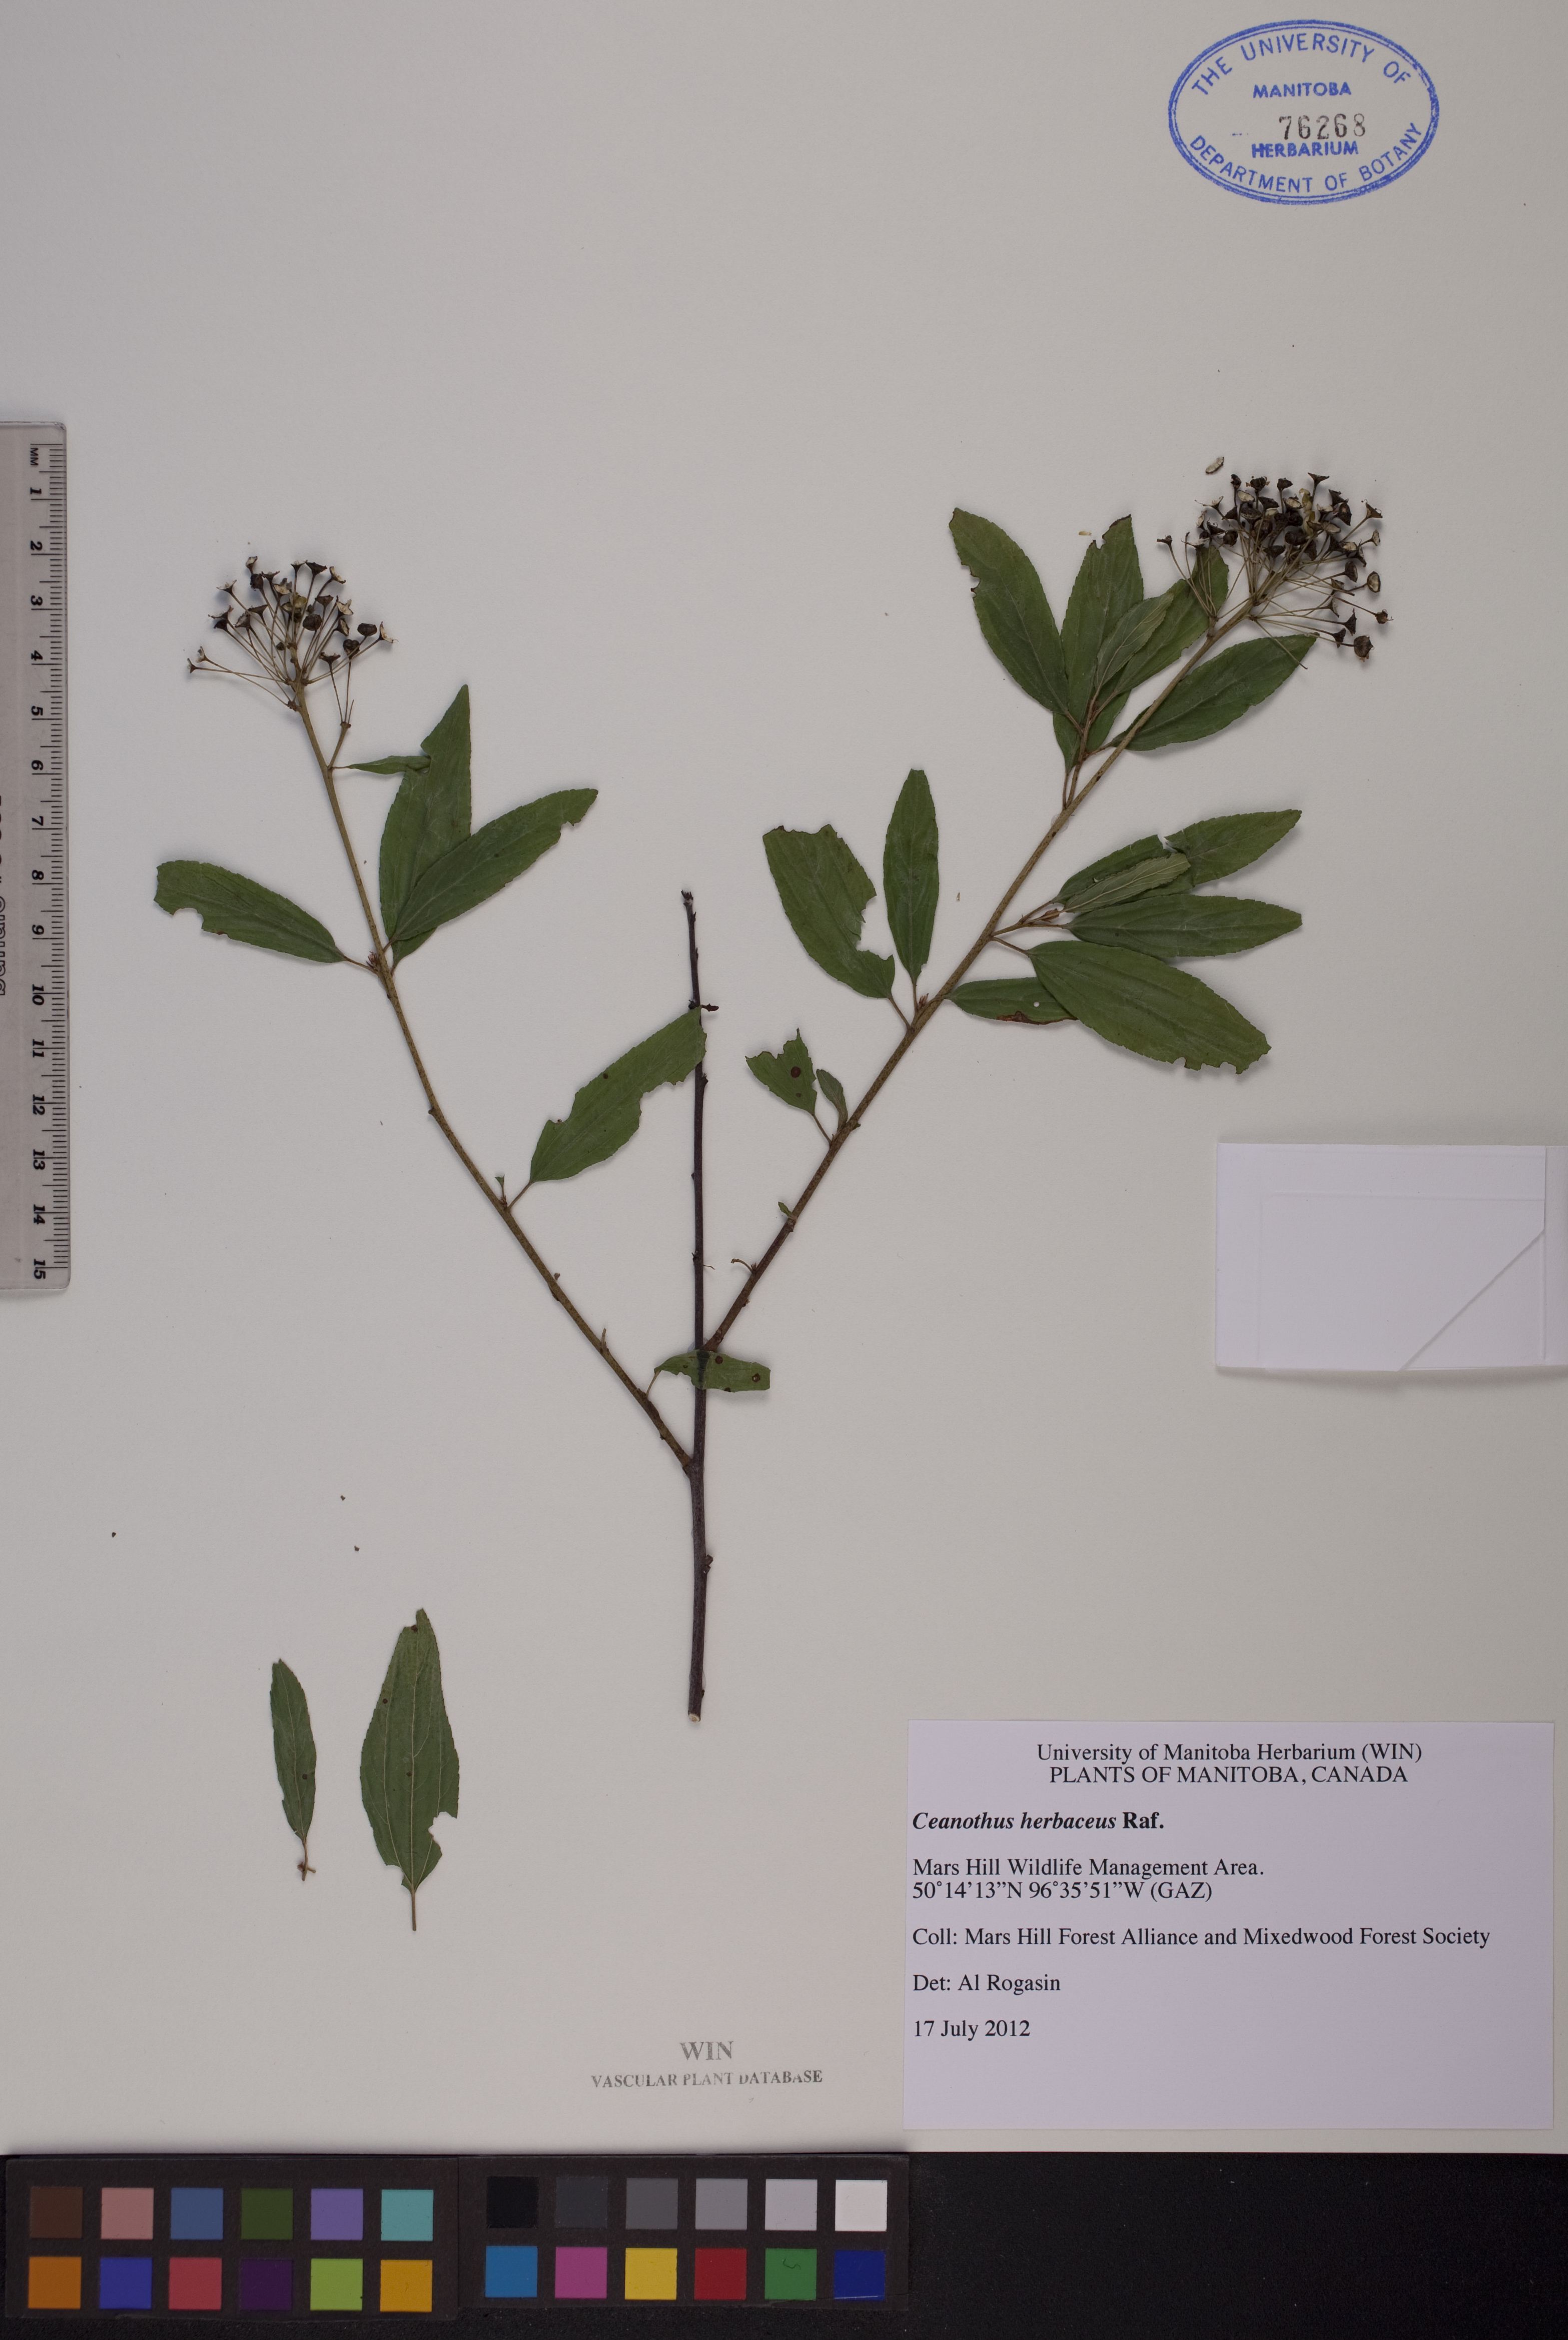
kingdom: Plantae
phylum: Tracheophyta
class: Magnoliopsida
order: Rosales
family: Rhamnaceae
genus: Ceanothus
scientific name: Ceanothus herbaceus
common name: Inland ceanothus
